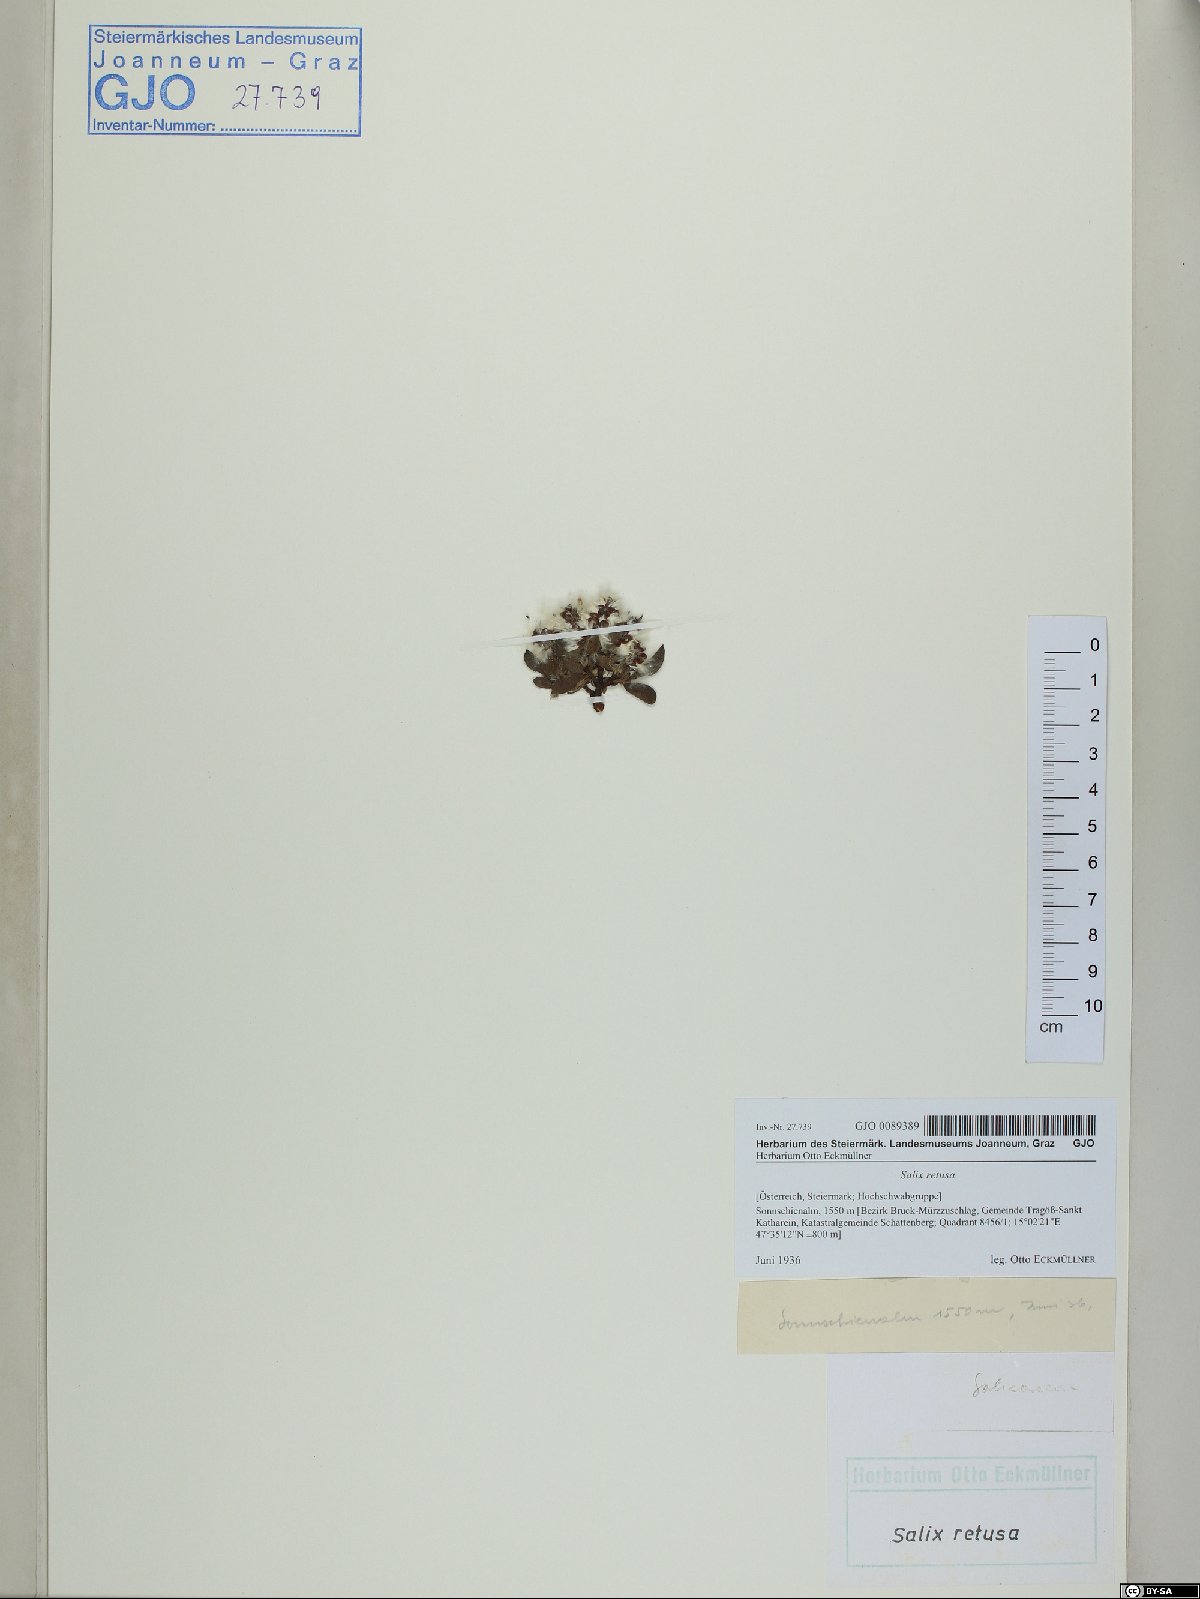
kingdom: Plantae
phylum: Tracheophyta
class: Magnoliopsida
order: Malpighiales
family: Salicaceae
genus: Salix
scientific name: Salix retusa
